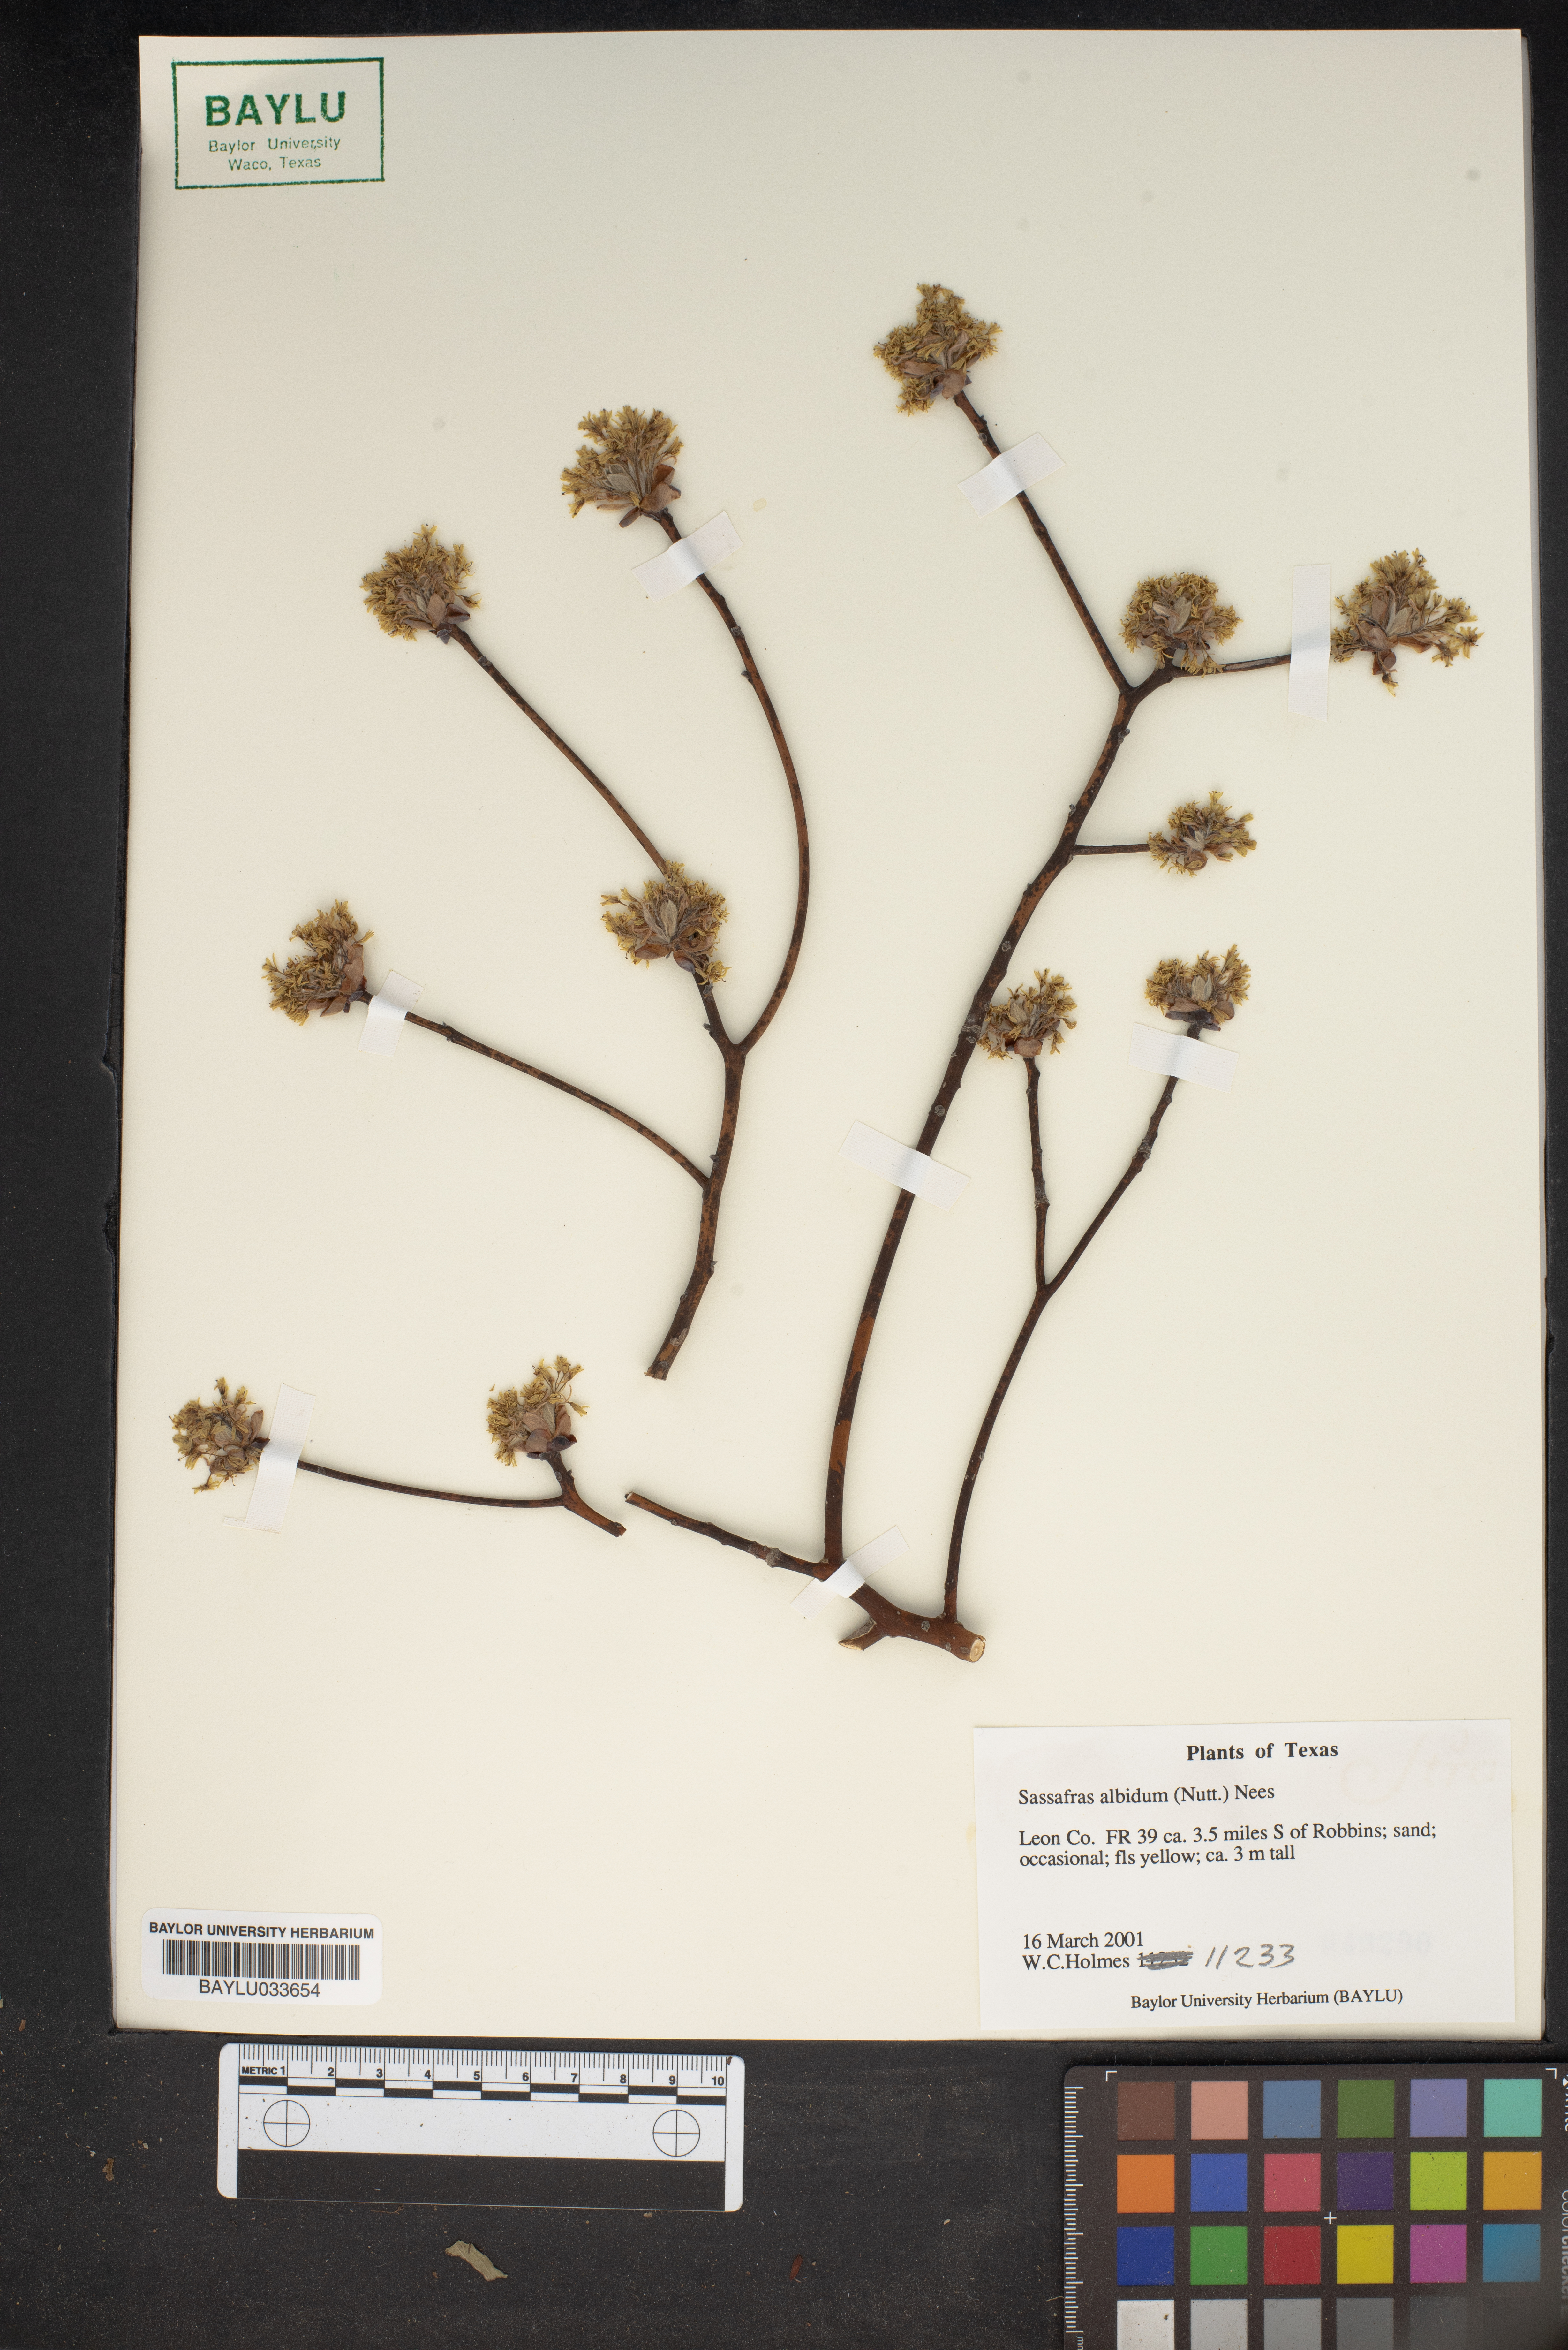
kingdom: Plantae
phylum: Tracheophyta
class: Magnoliopsida
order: Laurales
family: Lauraceae
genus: Sassafras
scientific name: Sassafras albidum
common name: Sassafras
